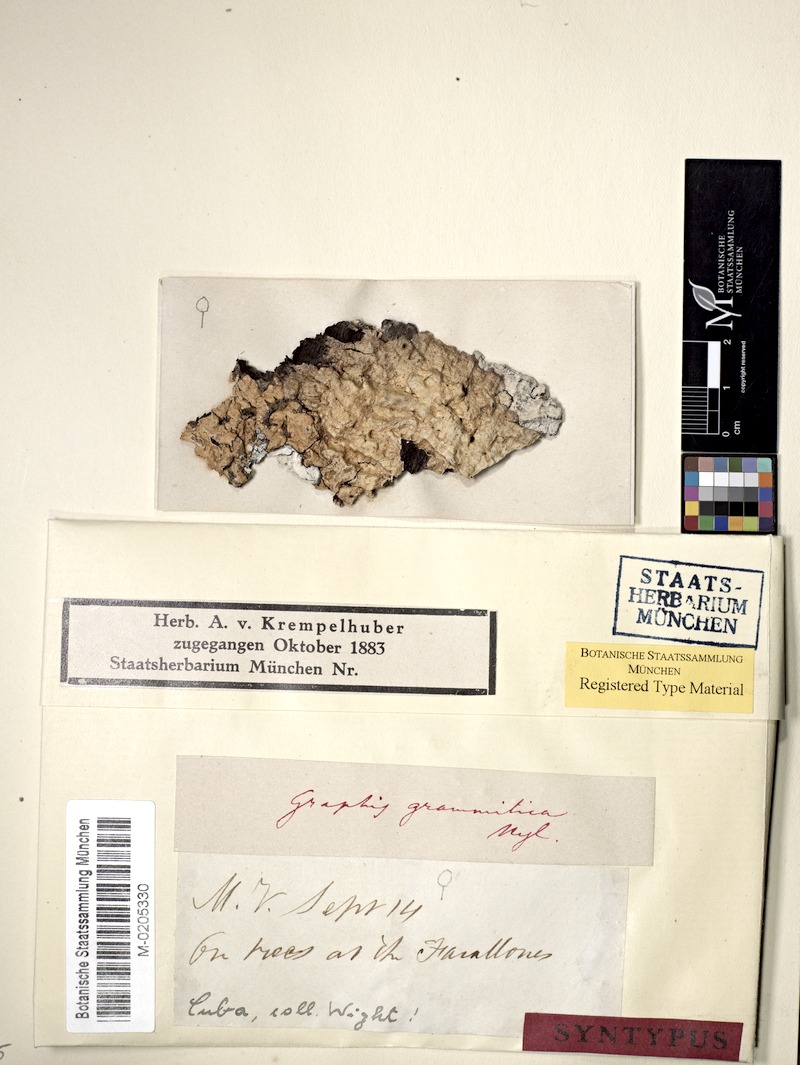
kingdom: Fungi
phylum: Ascomycota
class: Lecanoromycetes
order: Ostropales
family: Graphidaceae
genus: Platythecium
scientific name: Platythecium grammitis
